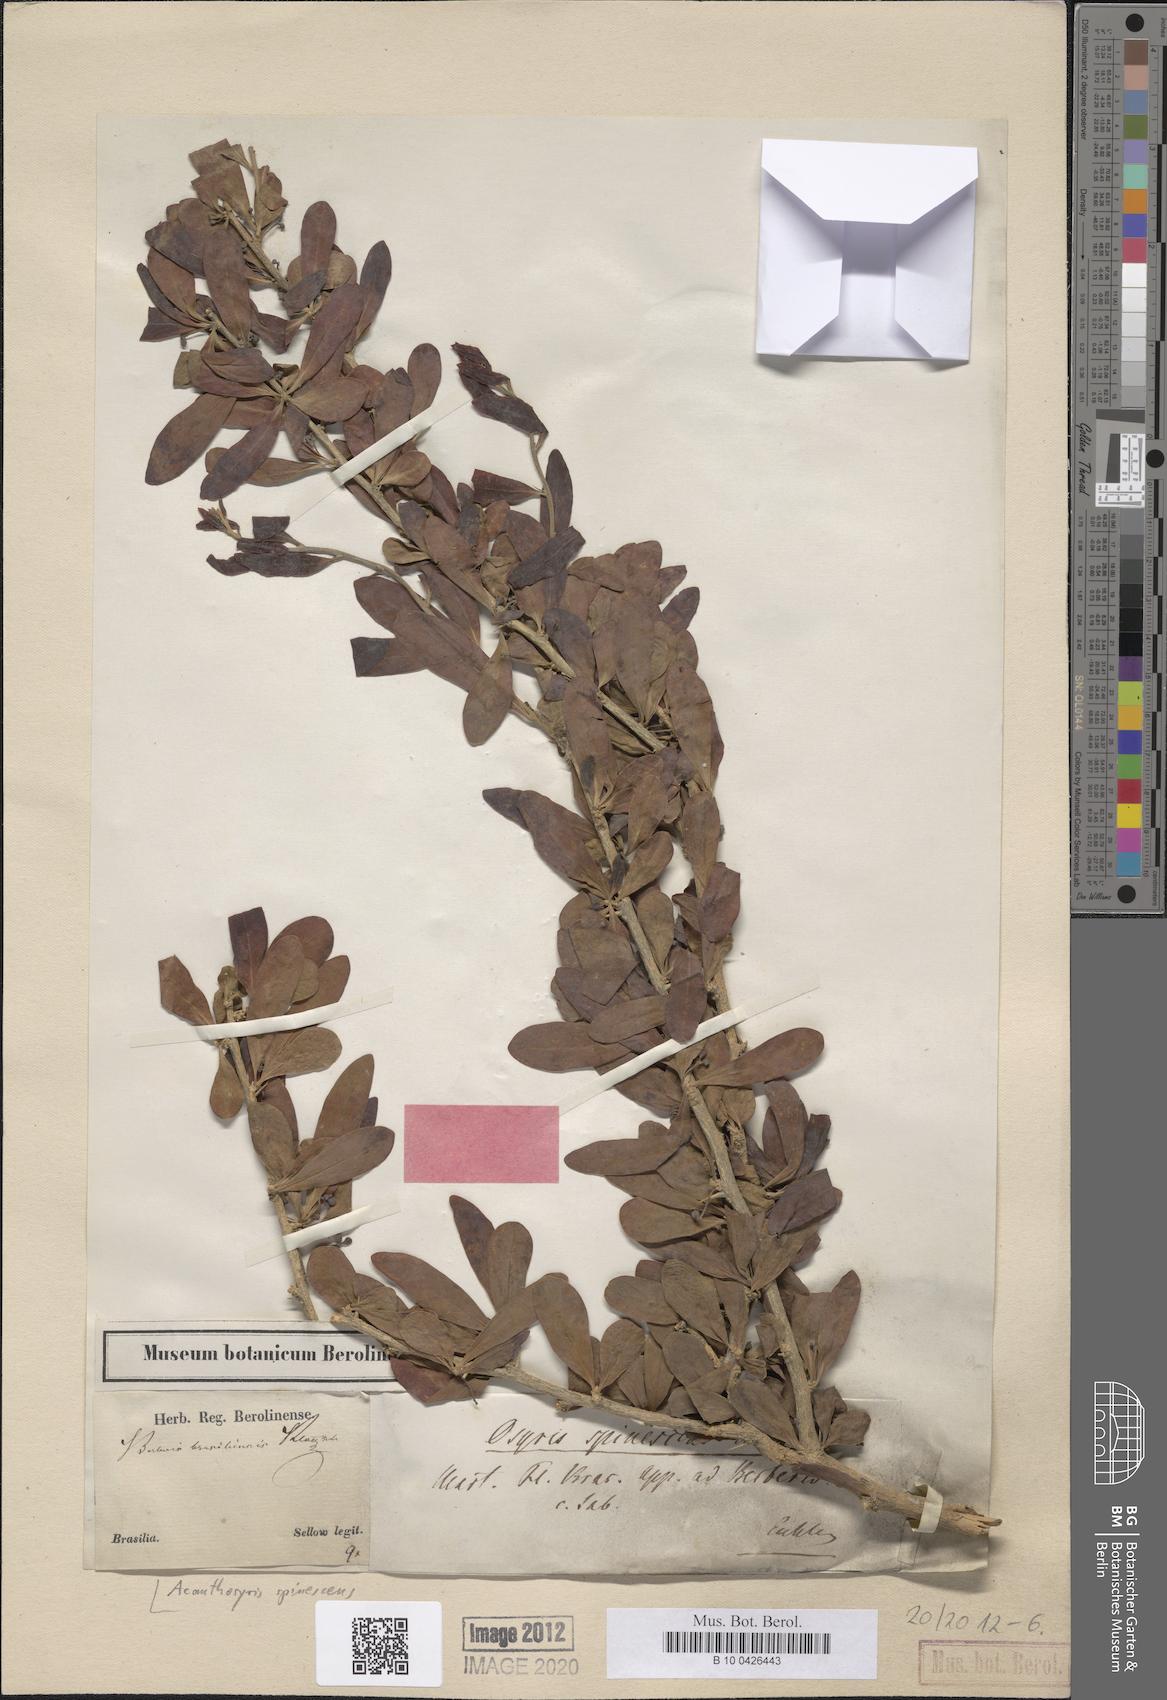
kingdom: Plantae
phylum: Tracheophyta
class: Magnoliopsida
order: Santalales
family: Cervantesiaceae
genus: Acanthosyris
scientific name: Acanthosyris spinescens
